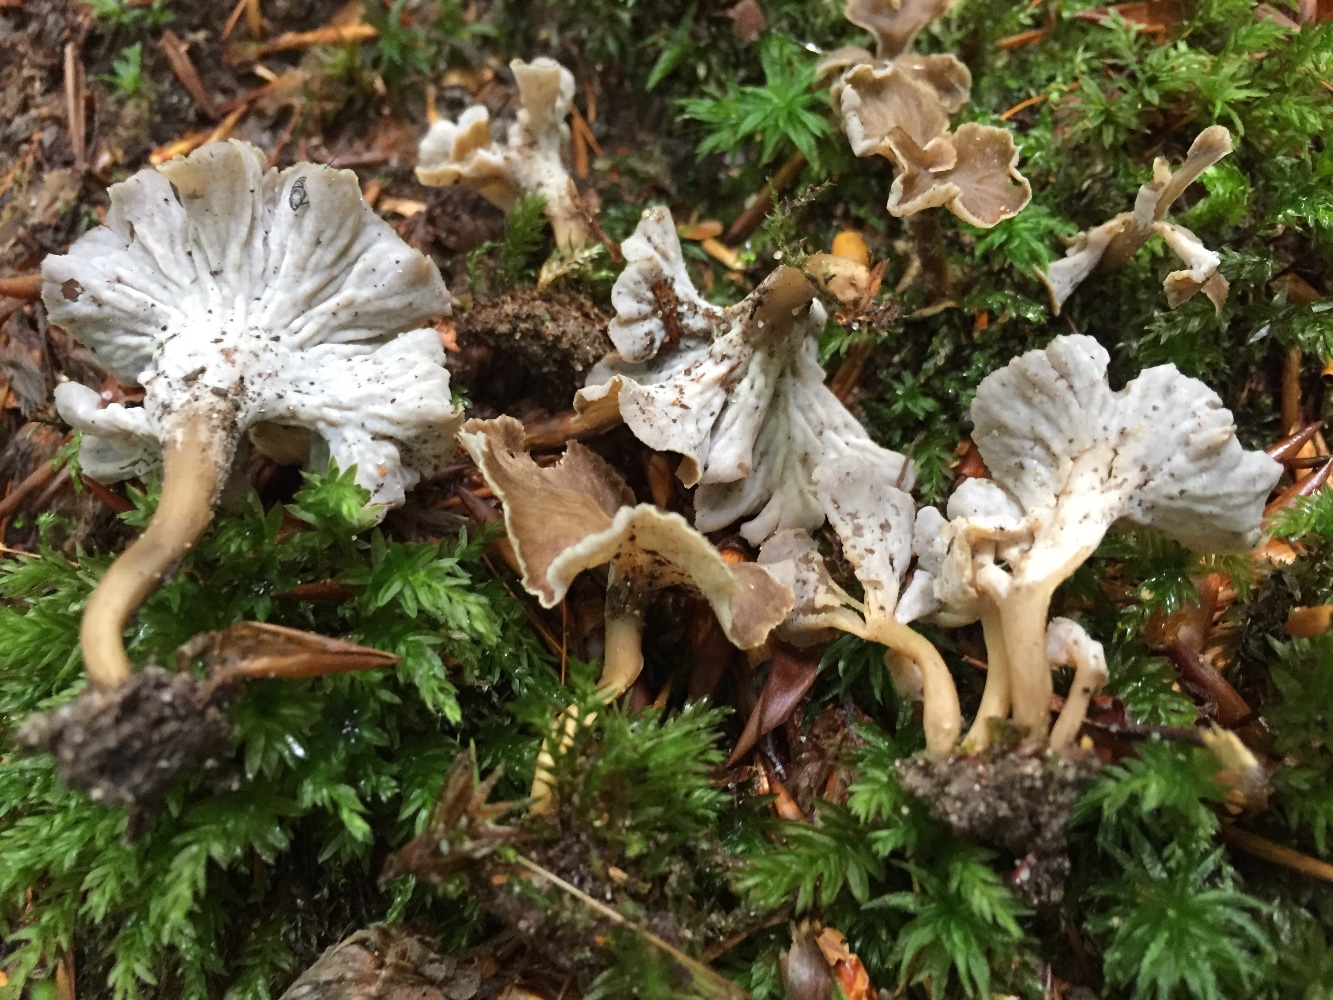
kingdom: Fungi
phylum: Basidiomycota
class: Agaricomycetes
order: Cantharellales
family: Hydnaceae
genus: Craterellus
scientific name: Craterellus undulatus
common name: liden kantarel
